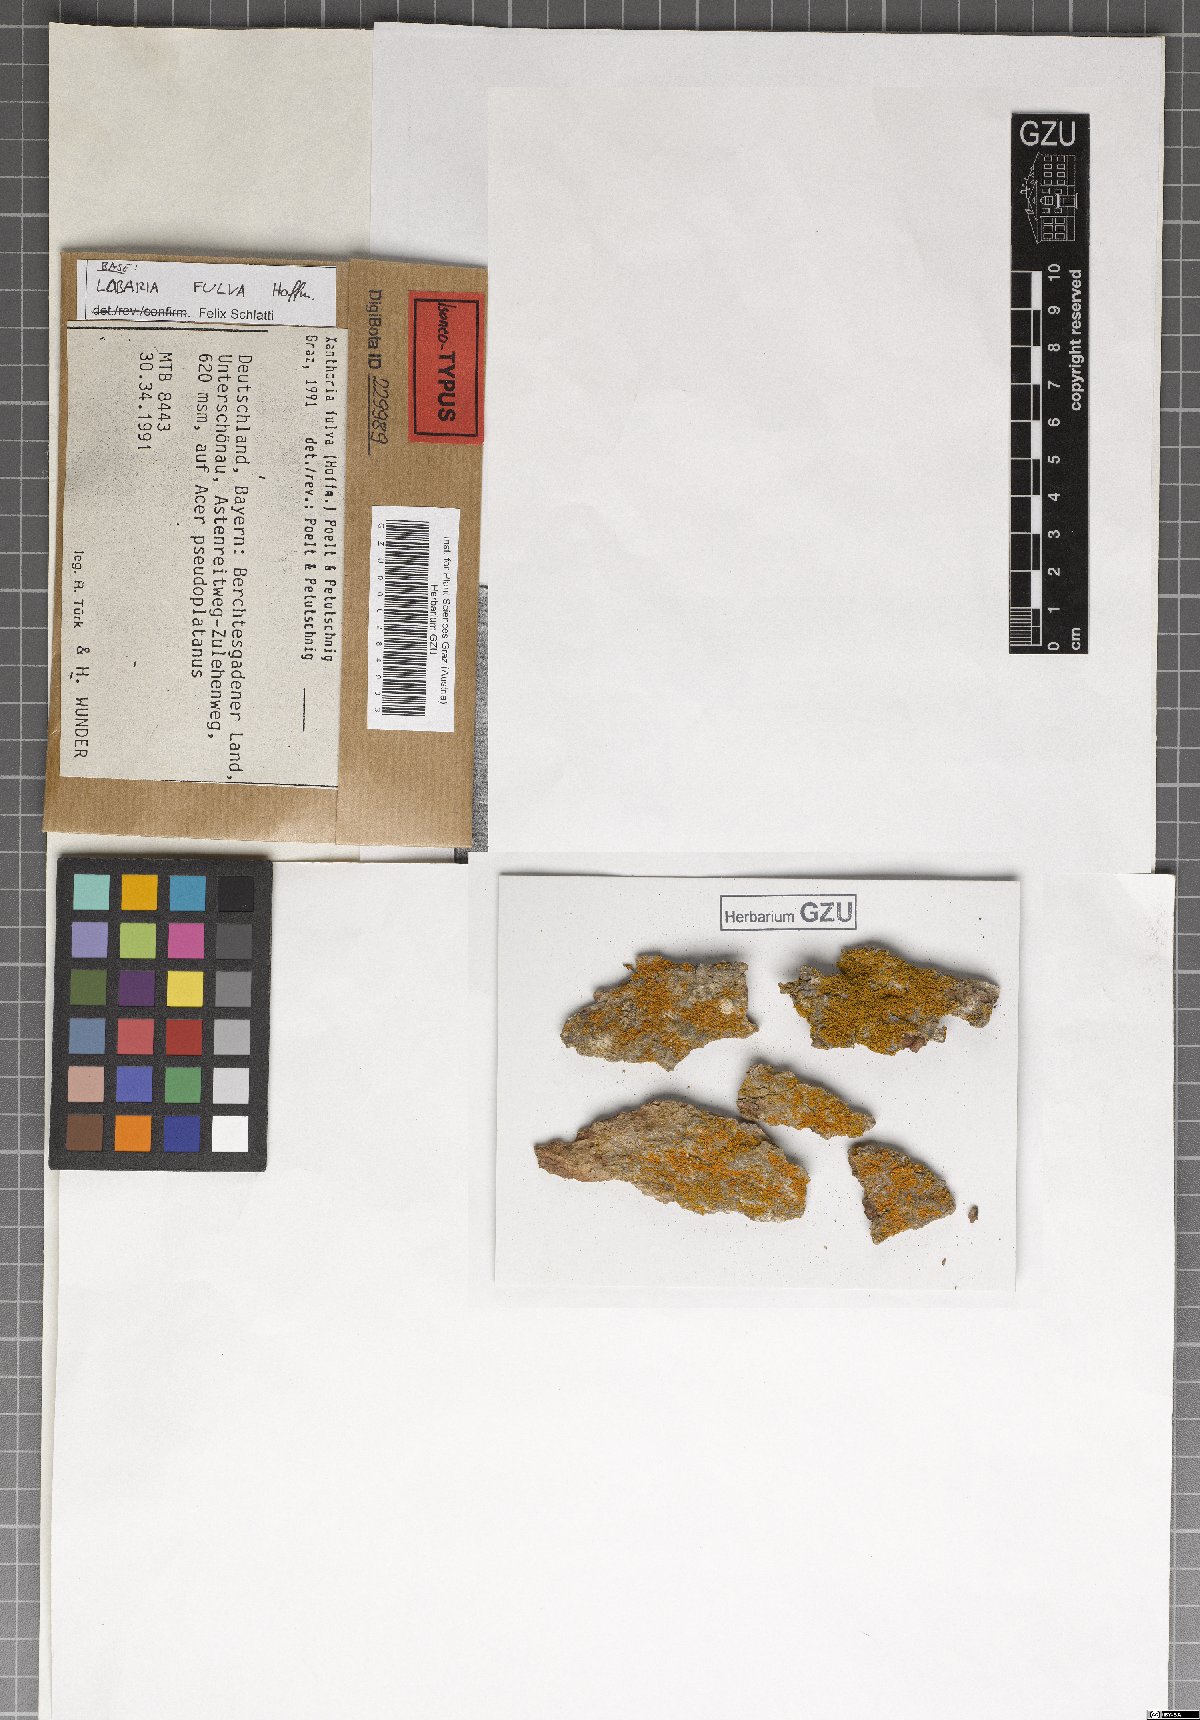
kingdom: Fungi
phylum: Ascomycota
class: Lecanoromycetes
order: Teloschistales
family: Teloschistaceae
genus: Gallowayella
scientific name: Gallowayella fulva
